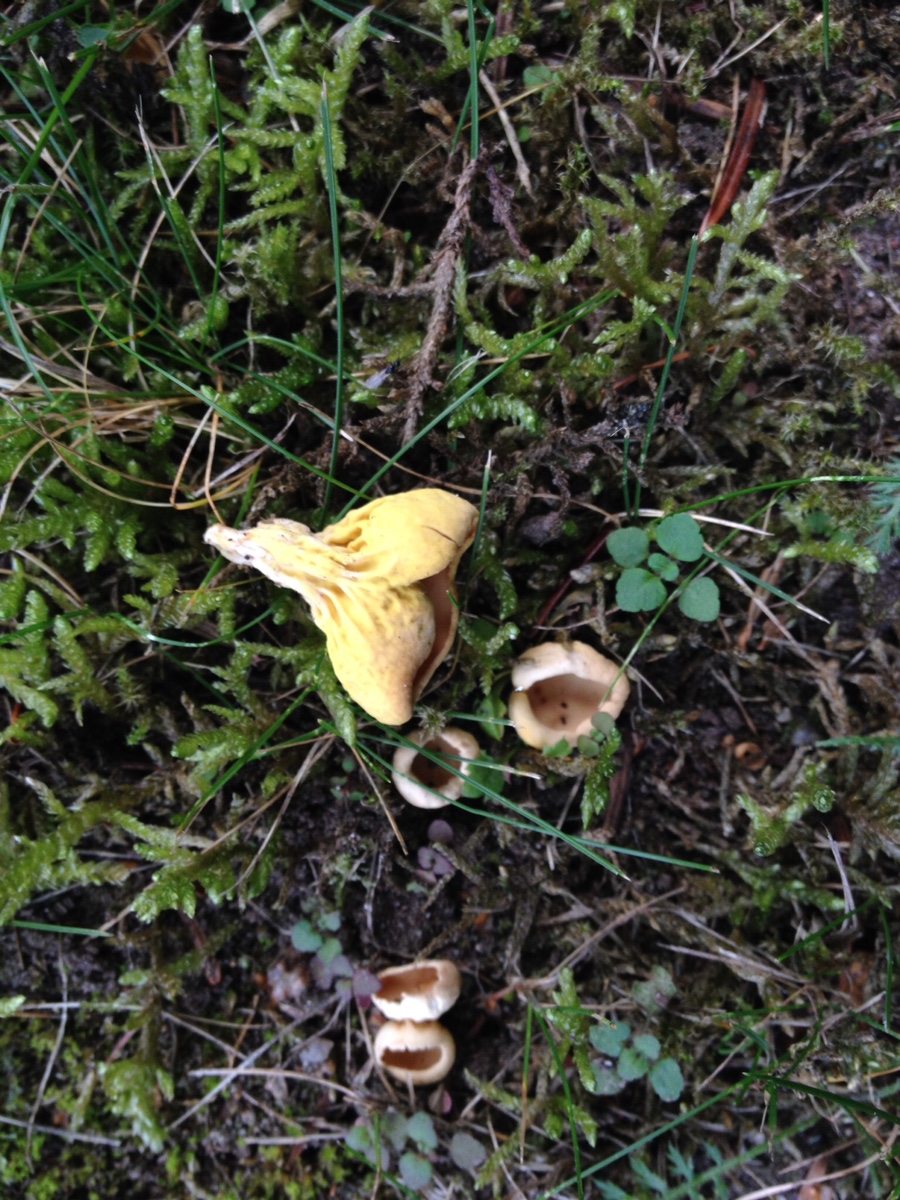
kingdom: Fungi
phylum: Ascomycota
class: Pezizomycetes
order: Pezizales
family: Otideaceae
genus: Otidea
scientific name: Otidea phlebophora
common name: året ørebæger
